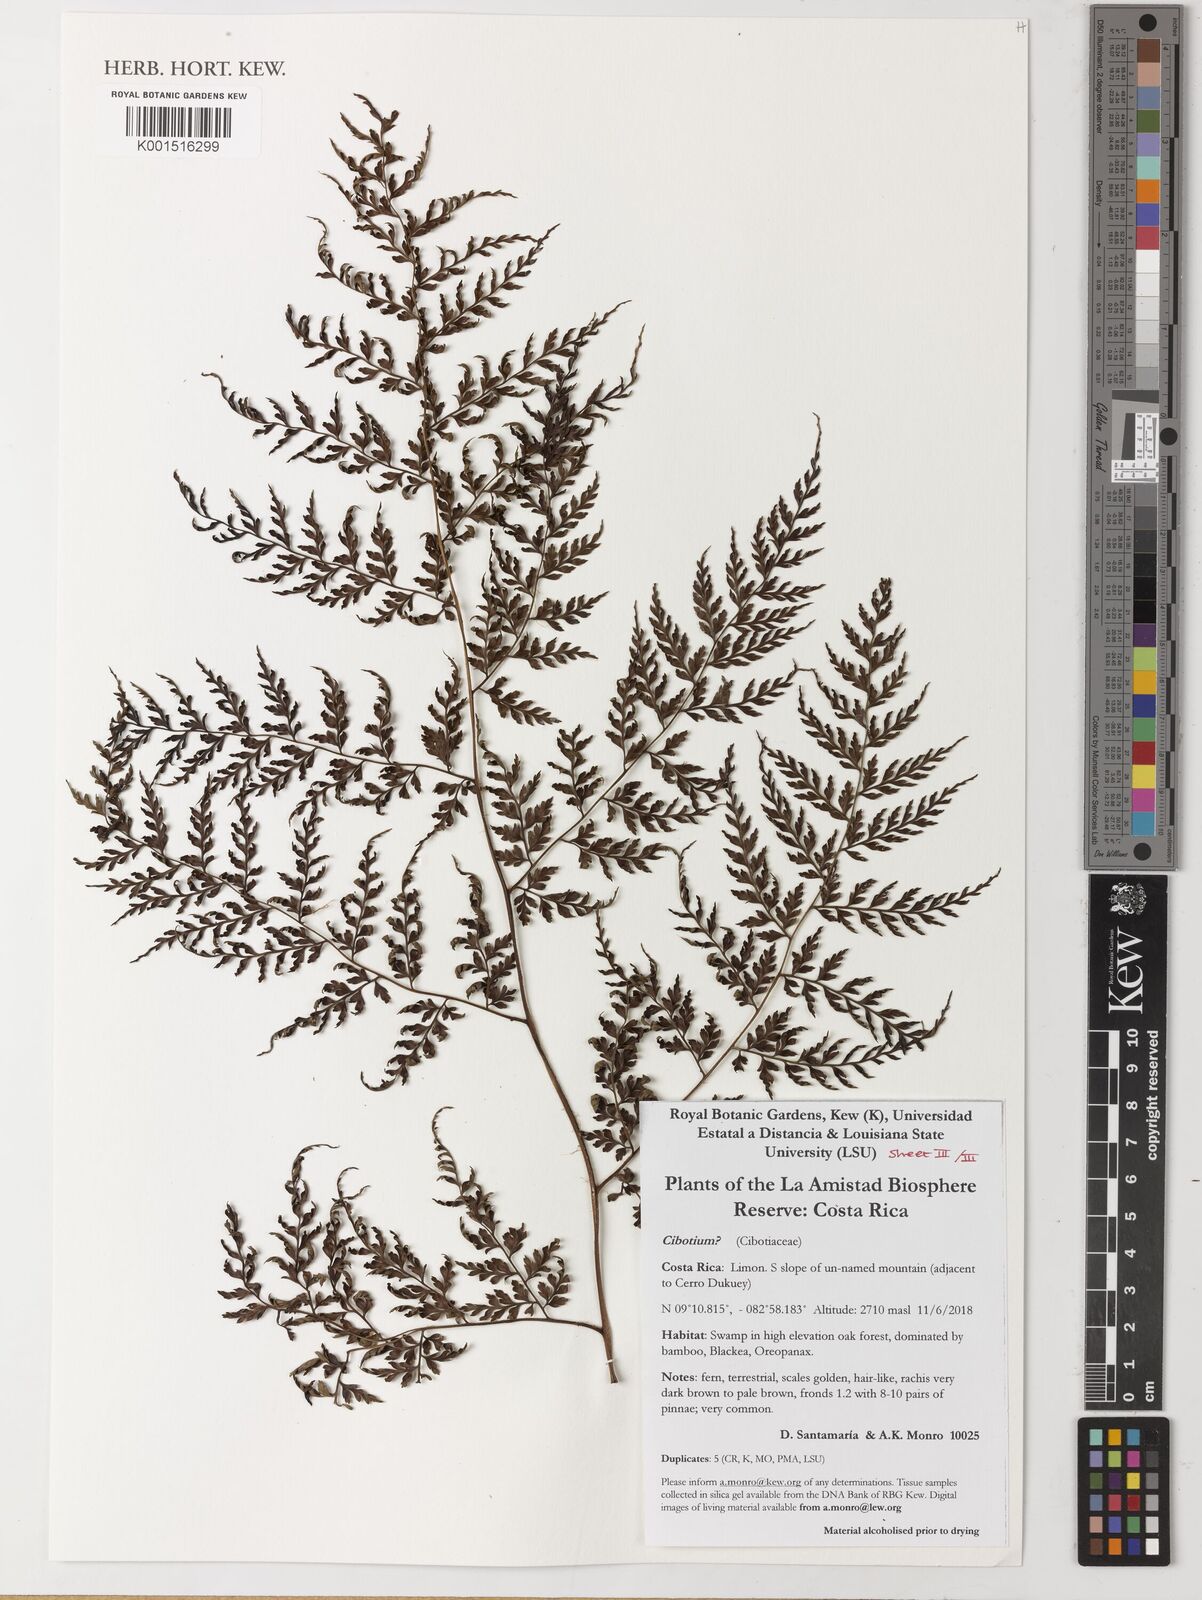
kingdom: Plantae
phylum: Tracheophyta
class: Polypodiopsida
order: Cyatheales
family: Cibotiaceae
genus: Cibotium
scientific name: Cibotium
